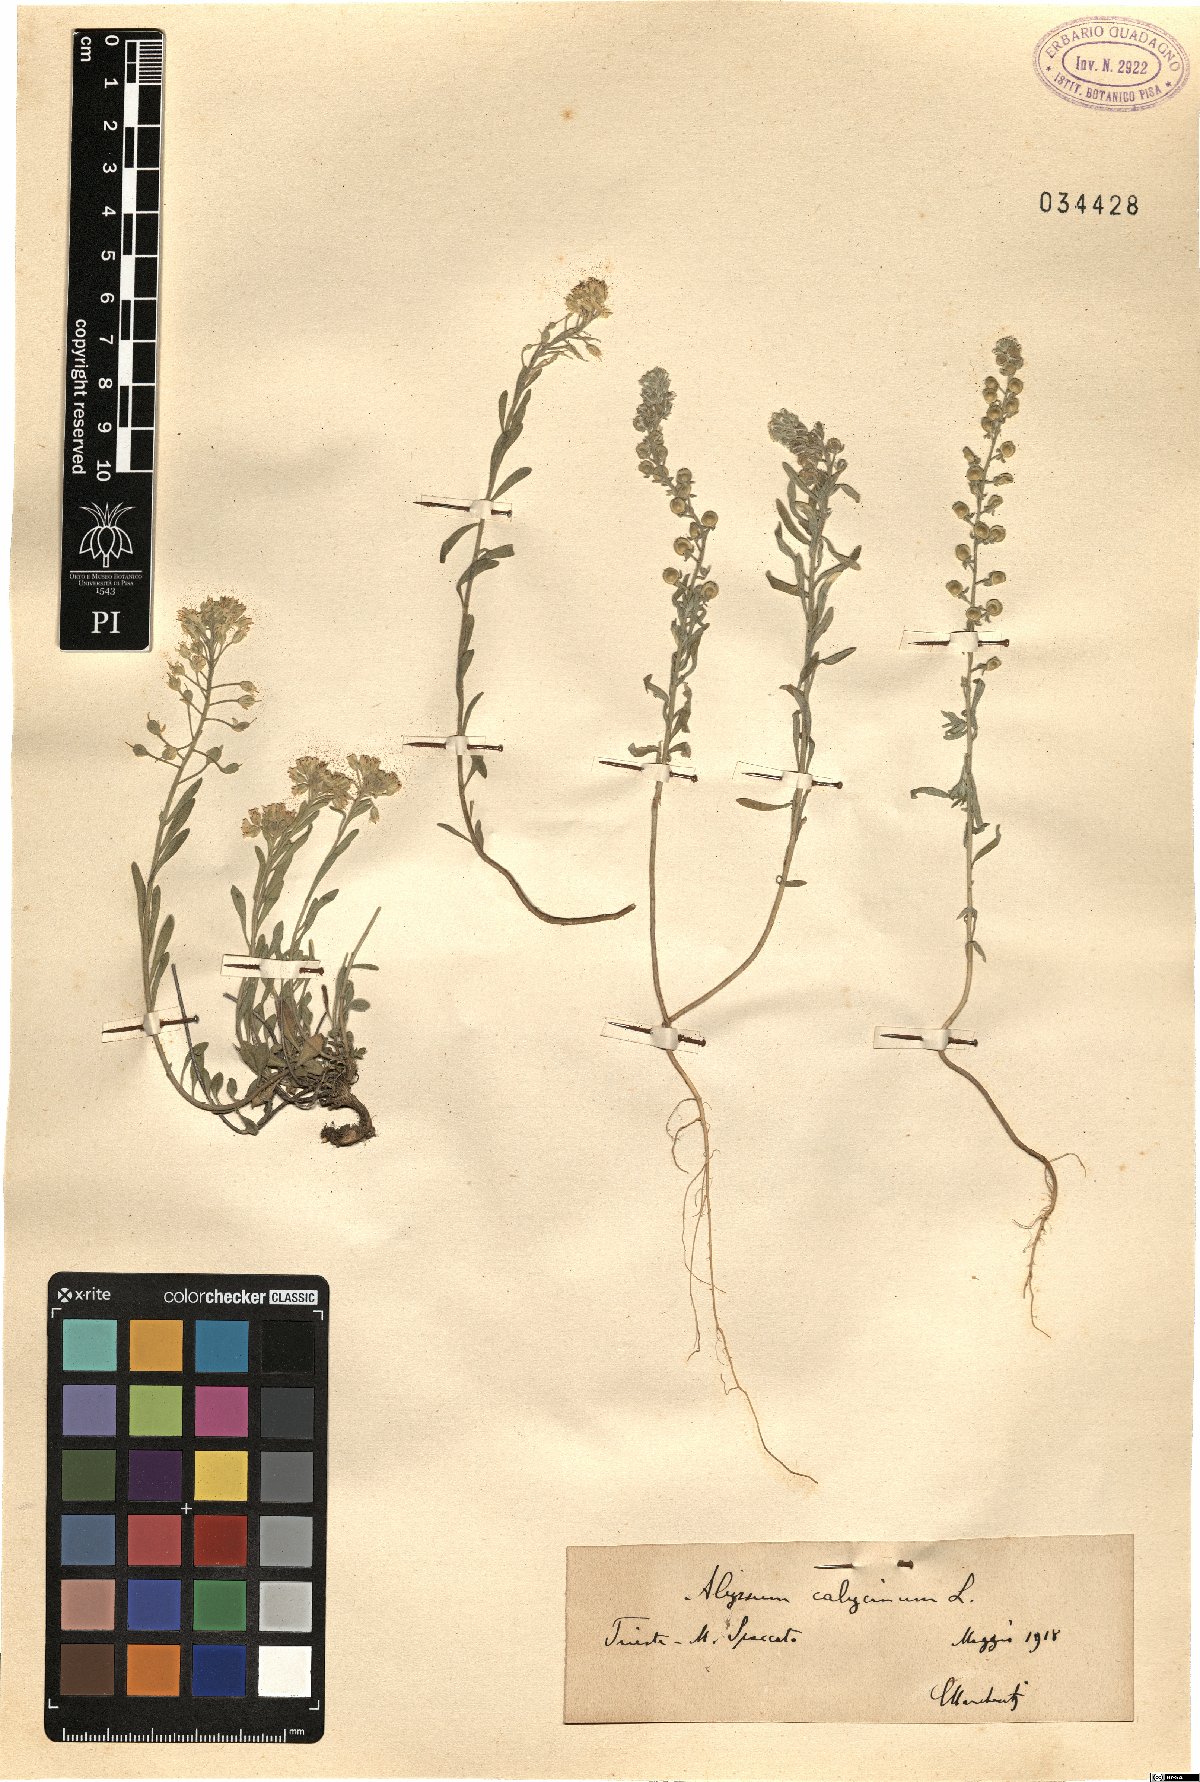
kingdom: Plantae
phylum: Tracheophyta
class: Magnoliopsida
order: Brassicales
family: Brassicaceae
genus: Alyssum
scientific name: Alyssum alyssoides
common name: Small alison
